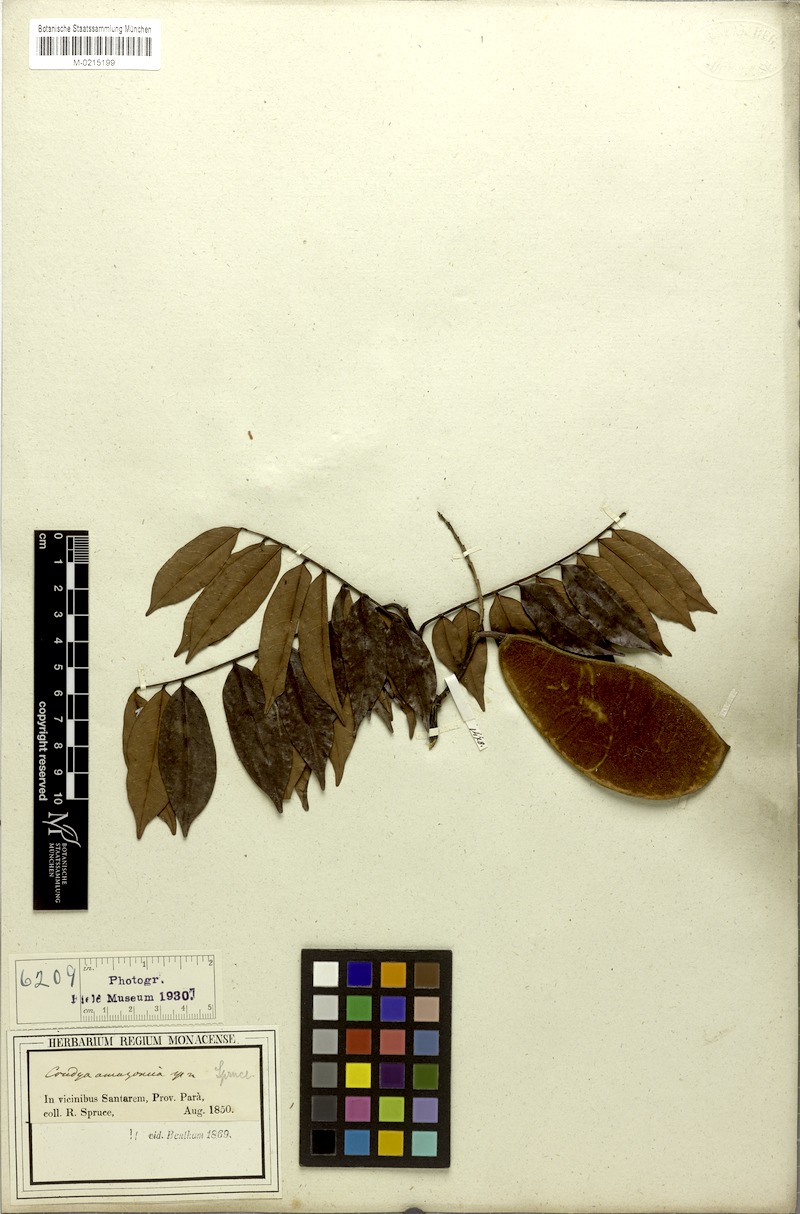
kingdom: Plantae
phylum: Tracheophyta
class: Magnoliopsida
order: Fabales
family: Fabaceae
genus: Crudia
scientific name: Crudia amazonica
